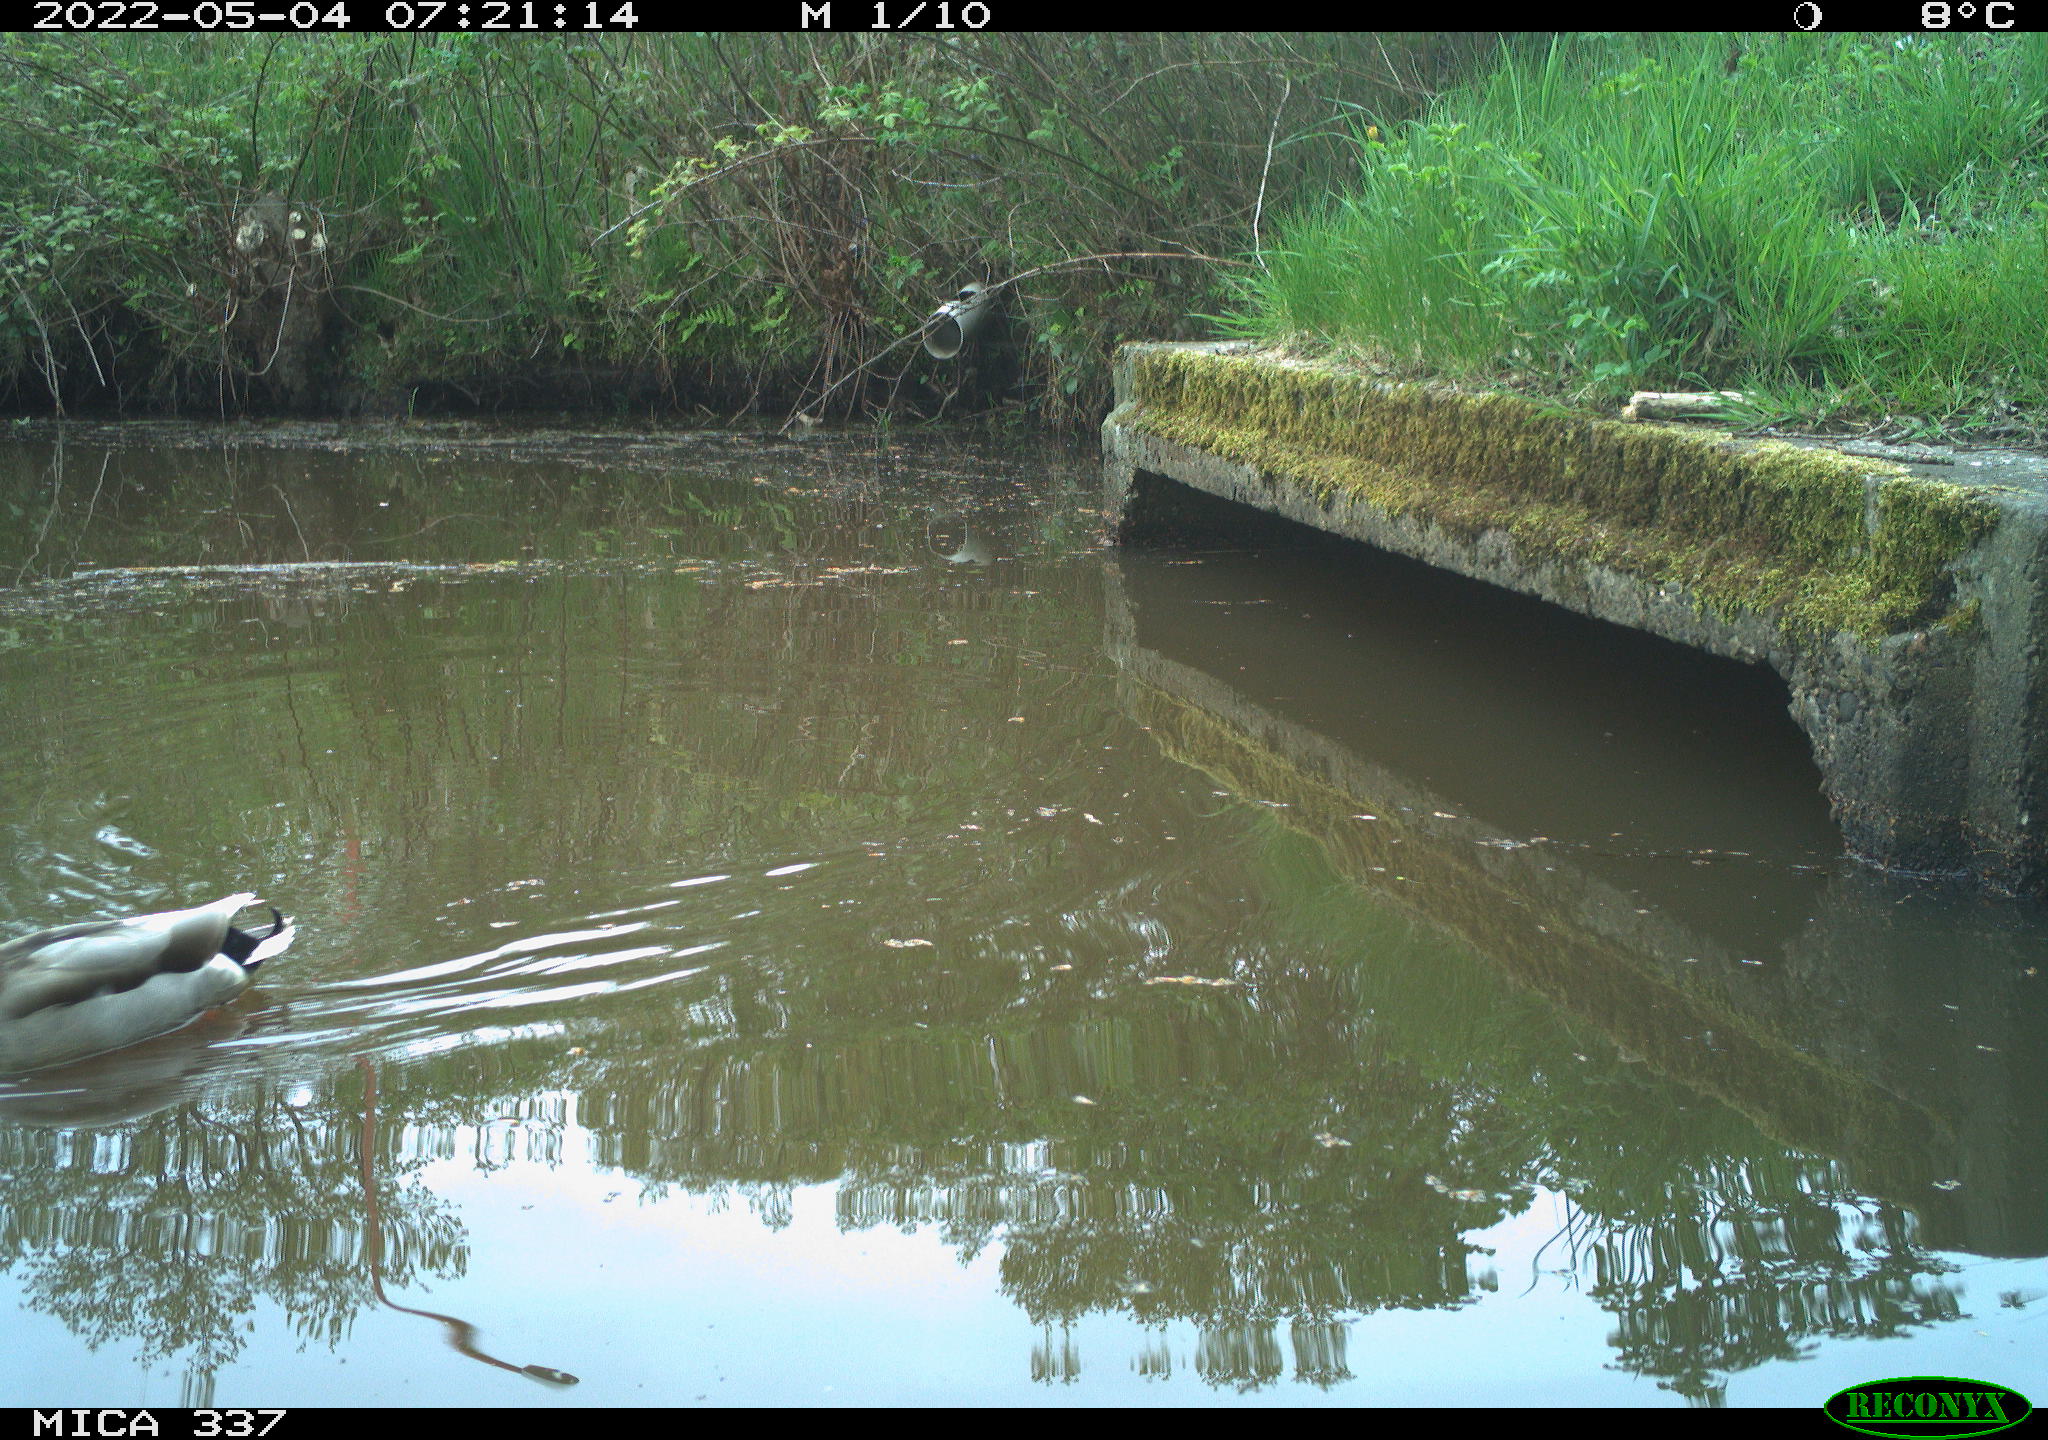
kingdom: Animalia
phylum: Chordata
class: Aves
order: Anseriformes
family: Anatidae
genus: Anas
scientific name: Anas platyrhynchos
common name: Mallard
